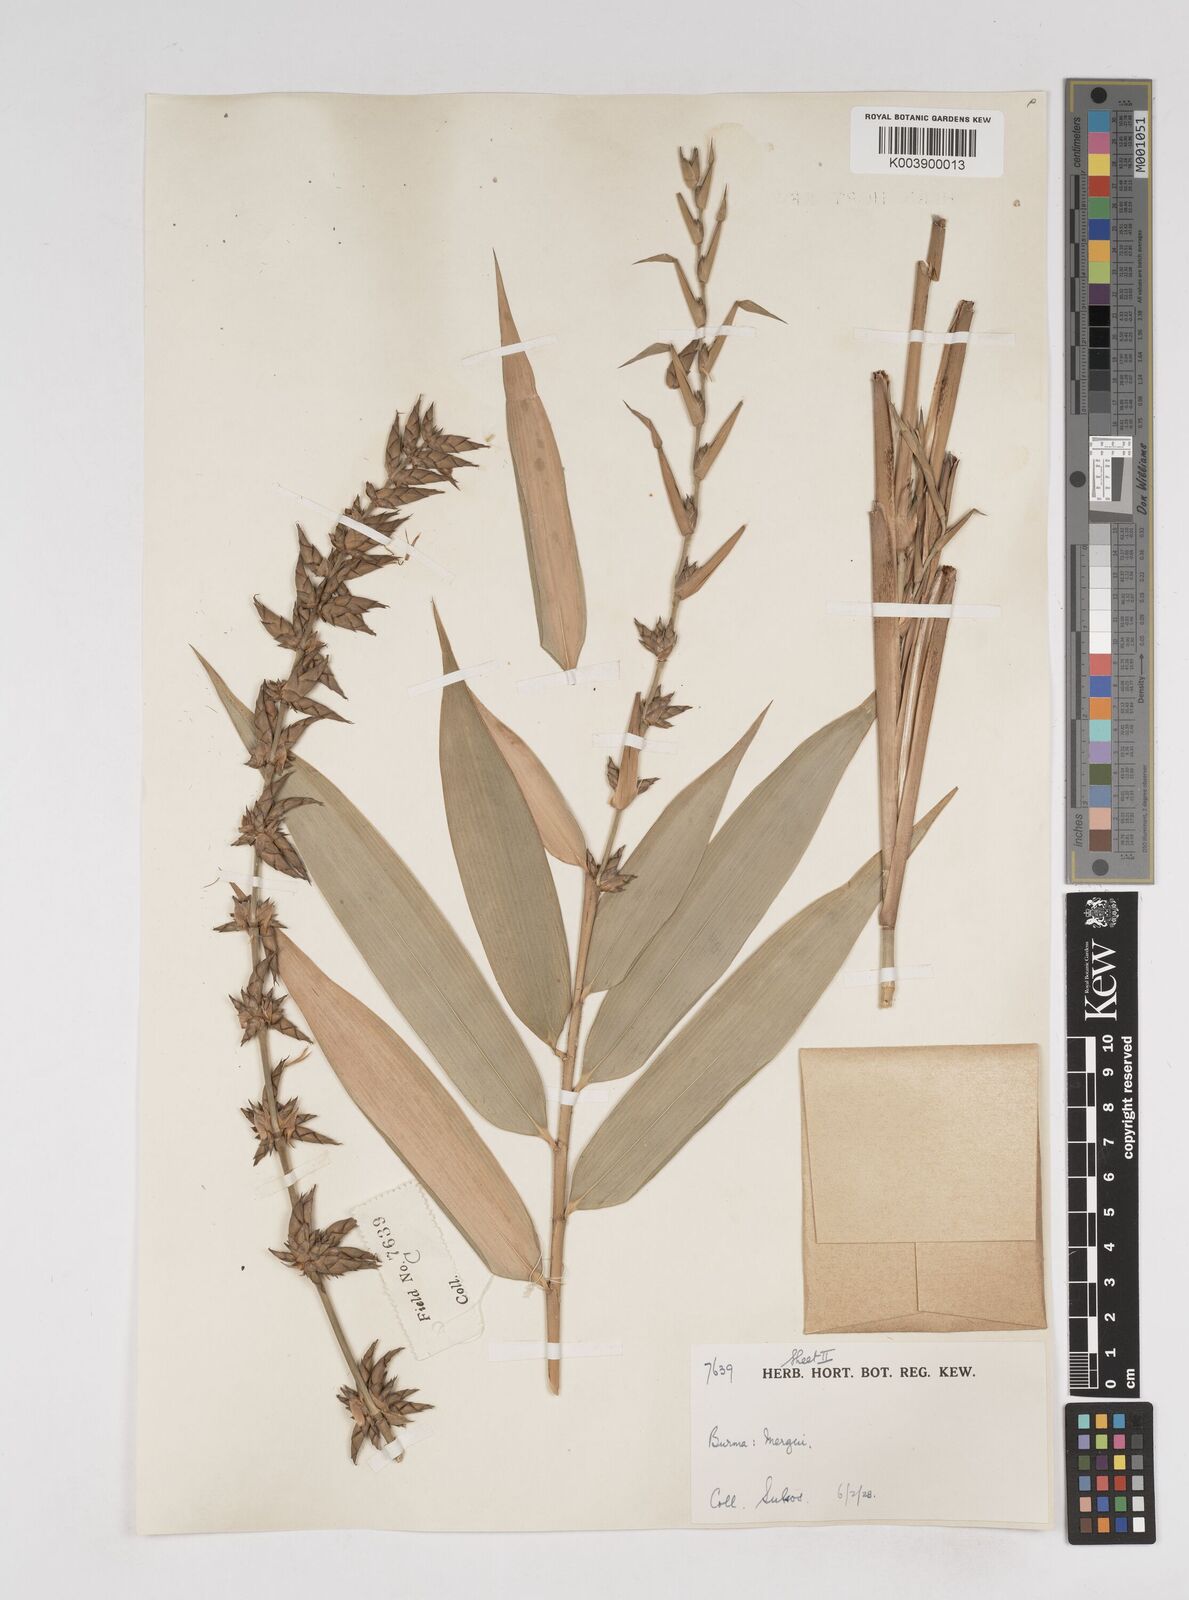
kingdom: Plantae
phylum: Tracheophyta
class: Liliopsida
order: Poales
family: Poaceae
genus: Gigantochloa
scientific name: Gigantochloa
